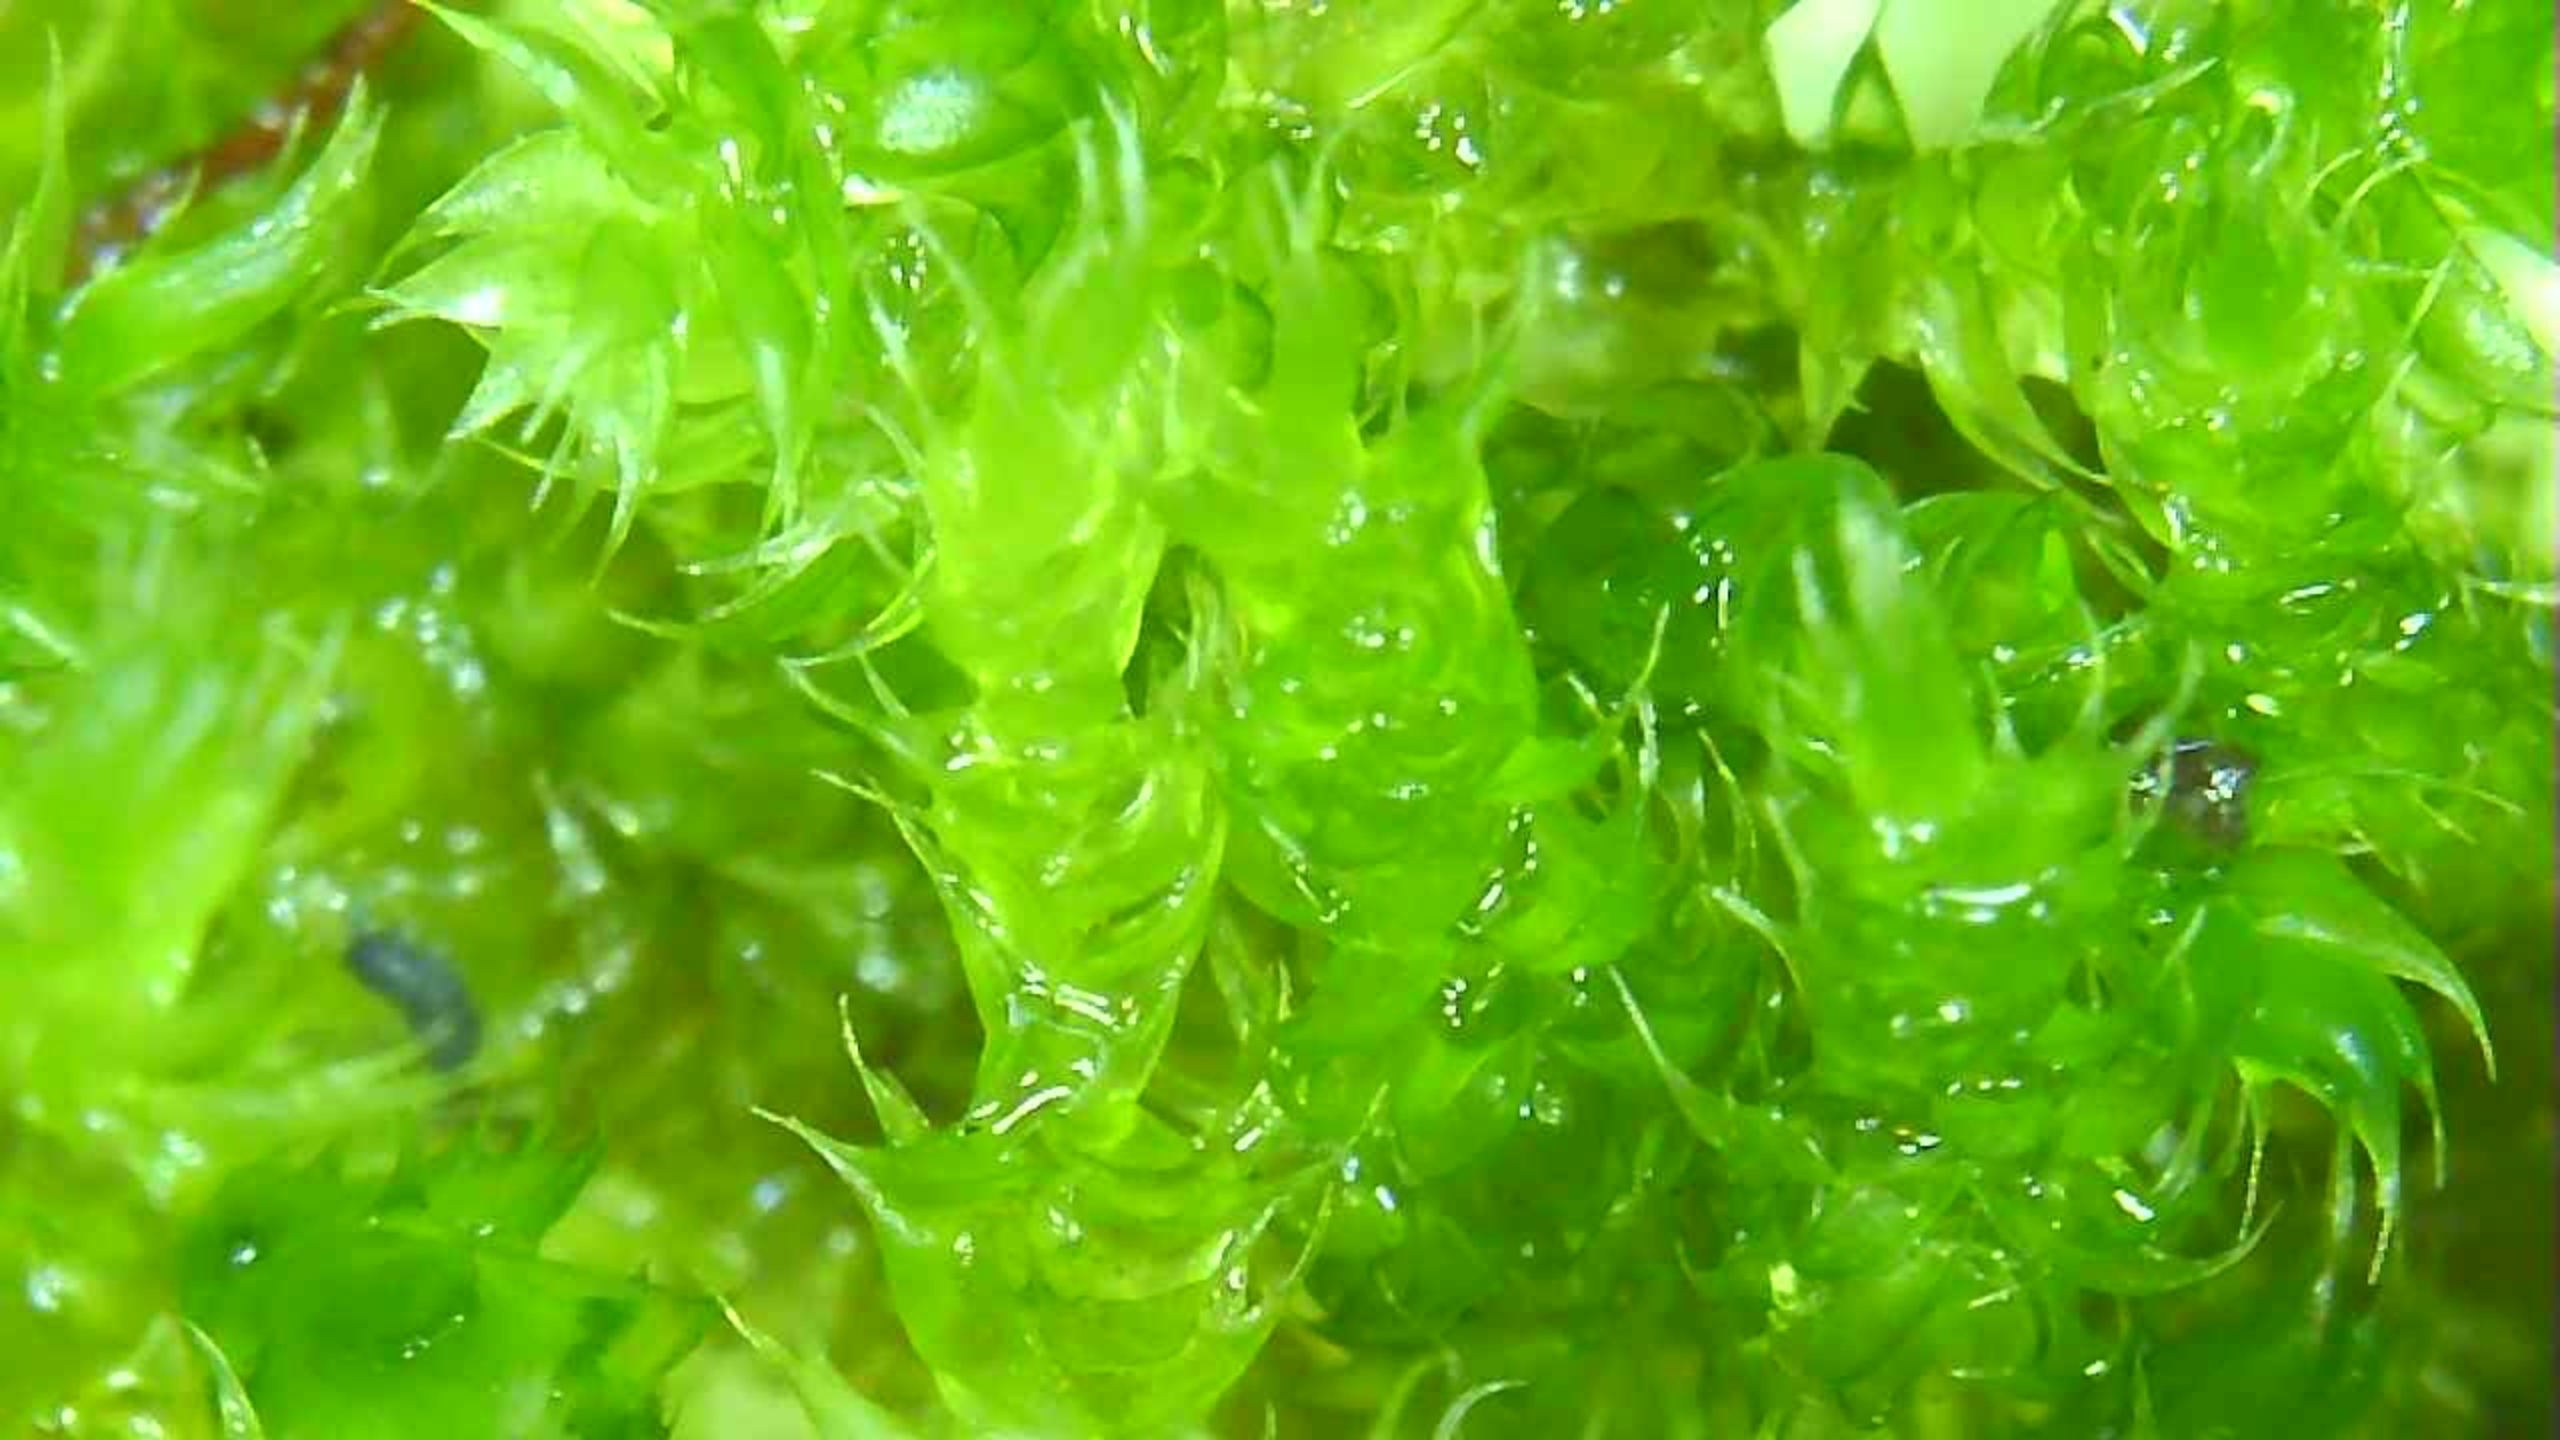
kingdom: Plantae
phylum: Bryophyta
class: Bryopsida
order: Hypnales
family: Hypnaceae
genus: Hypnum
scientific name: Hypnum cupressiforme
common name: Almindelig cypresmos
